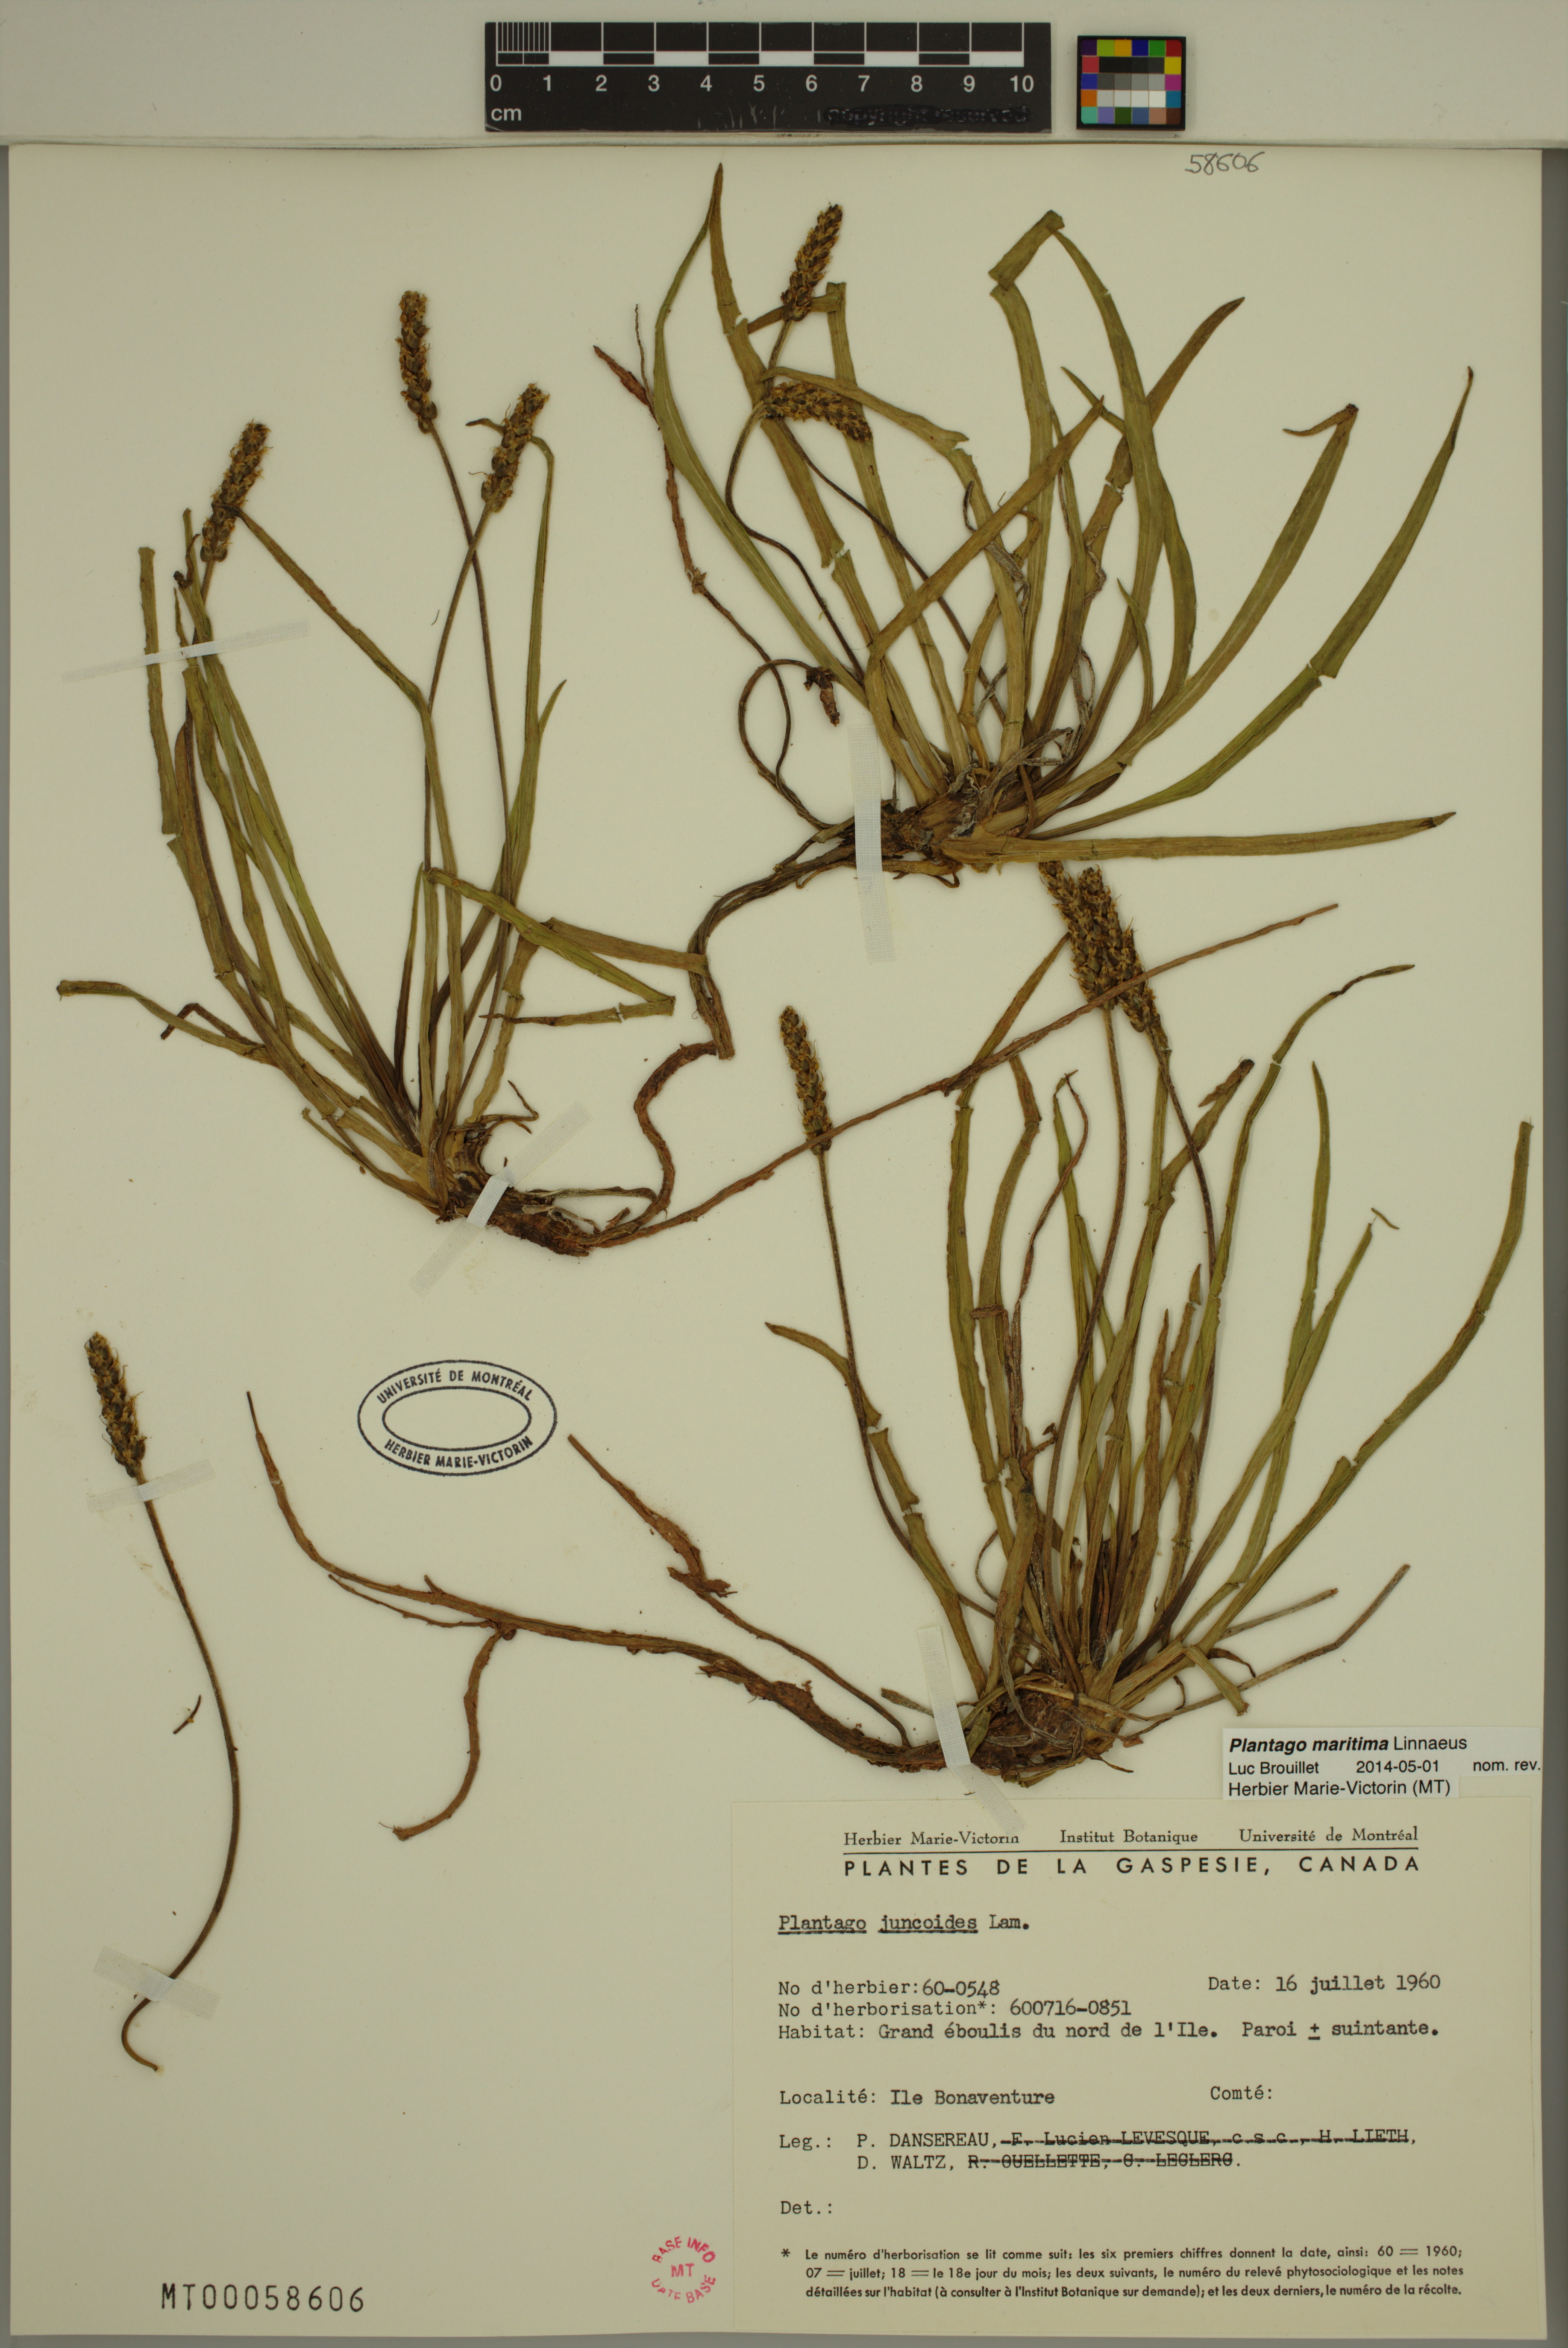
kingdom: Plantae
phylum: Tracheophyta
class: Magnoliopsida
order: Lamiales
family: Plantaginaceae
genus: Plantago
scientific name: Plantago maritima
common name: Sea plantain
